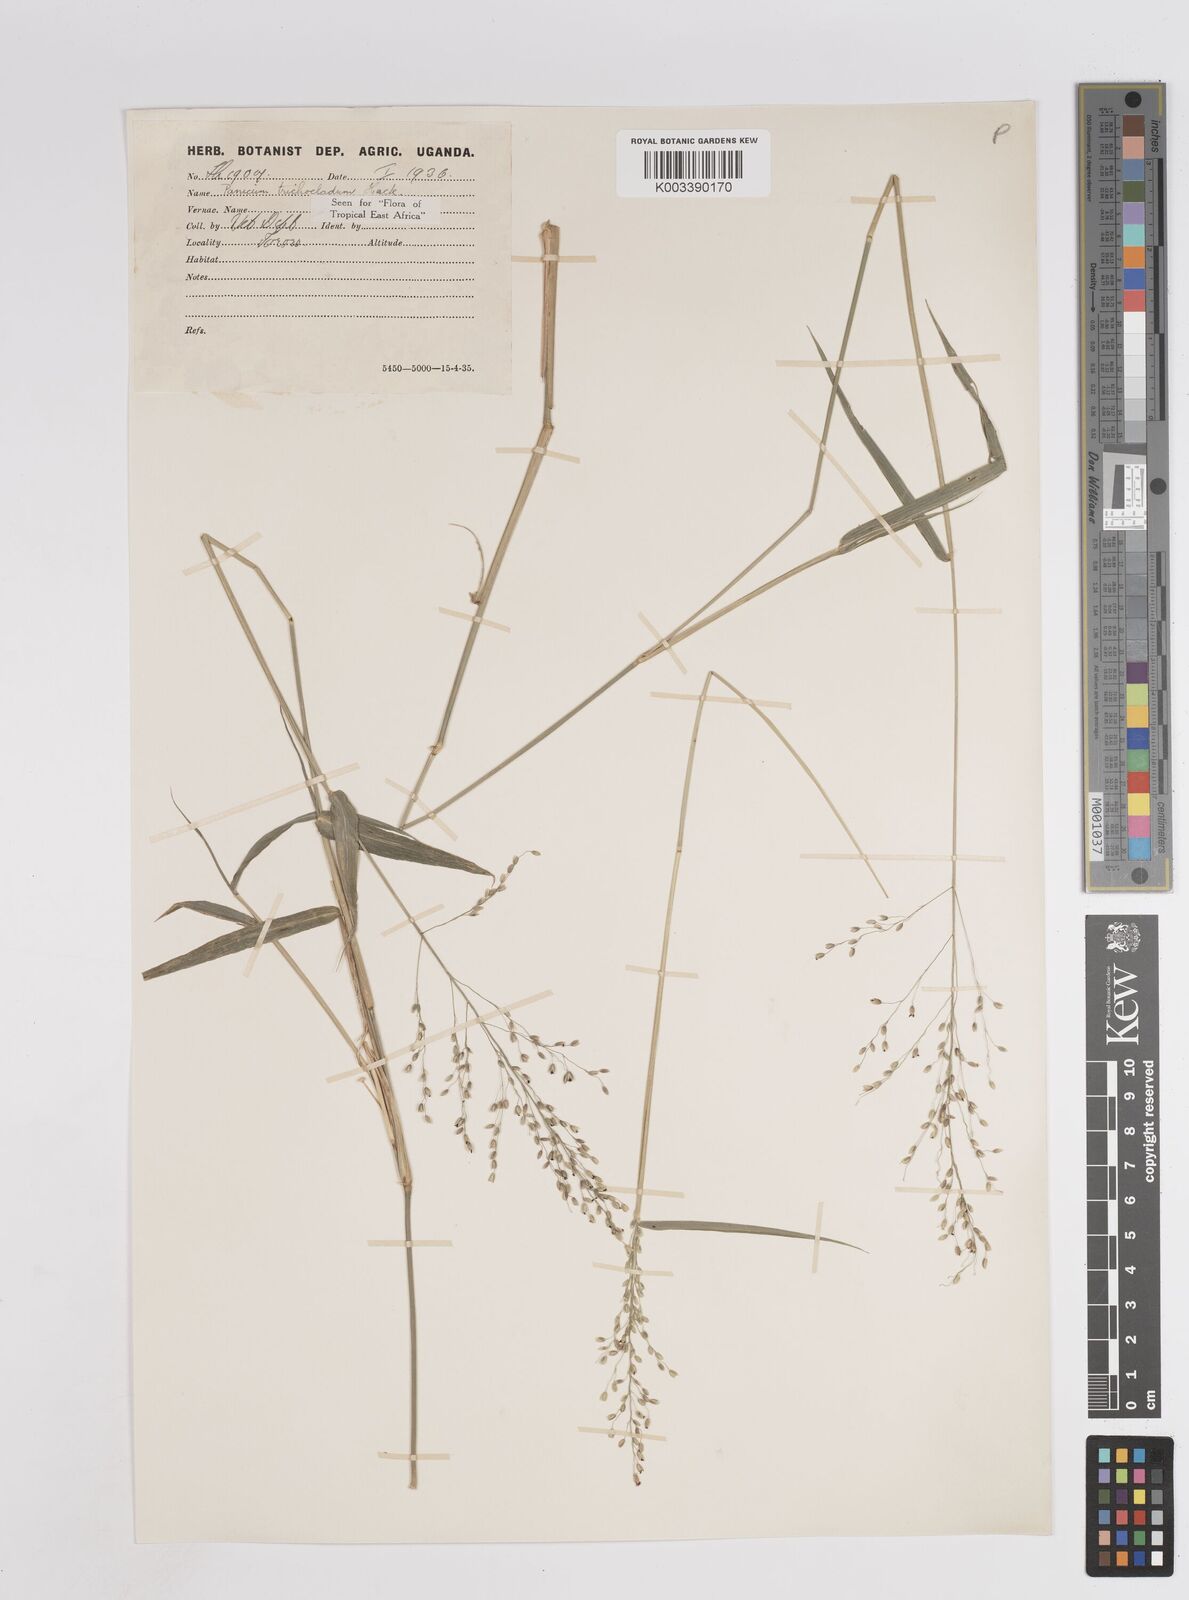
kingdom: Plantae
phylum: Tracheophyta
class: Liliopsida
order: Poales
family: Poaceae
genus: Panicum
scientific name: Panicum trichocladum
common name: Donkey grass
